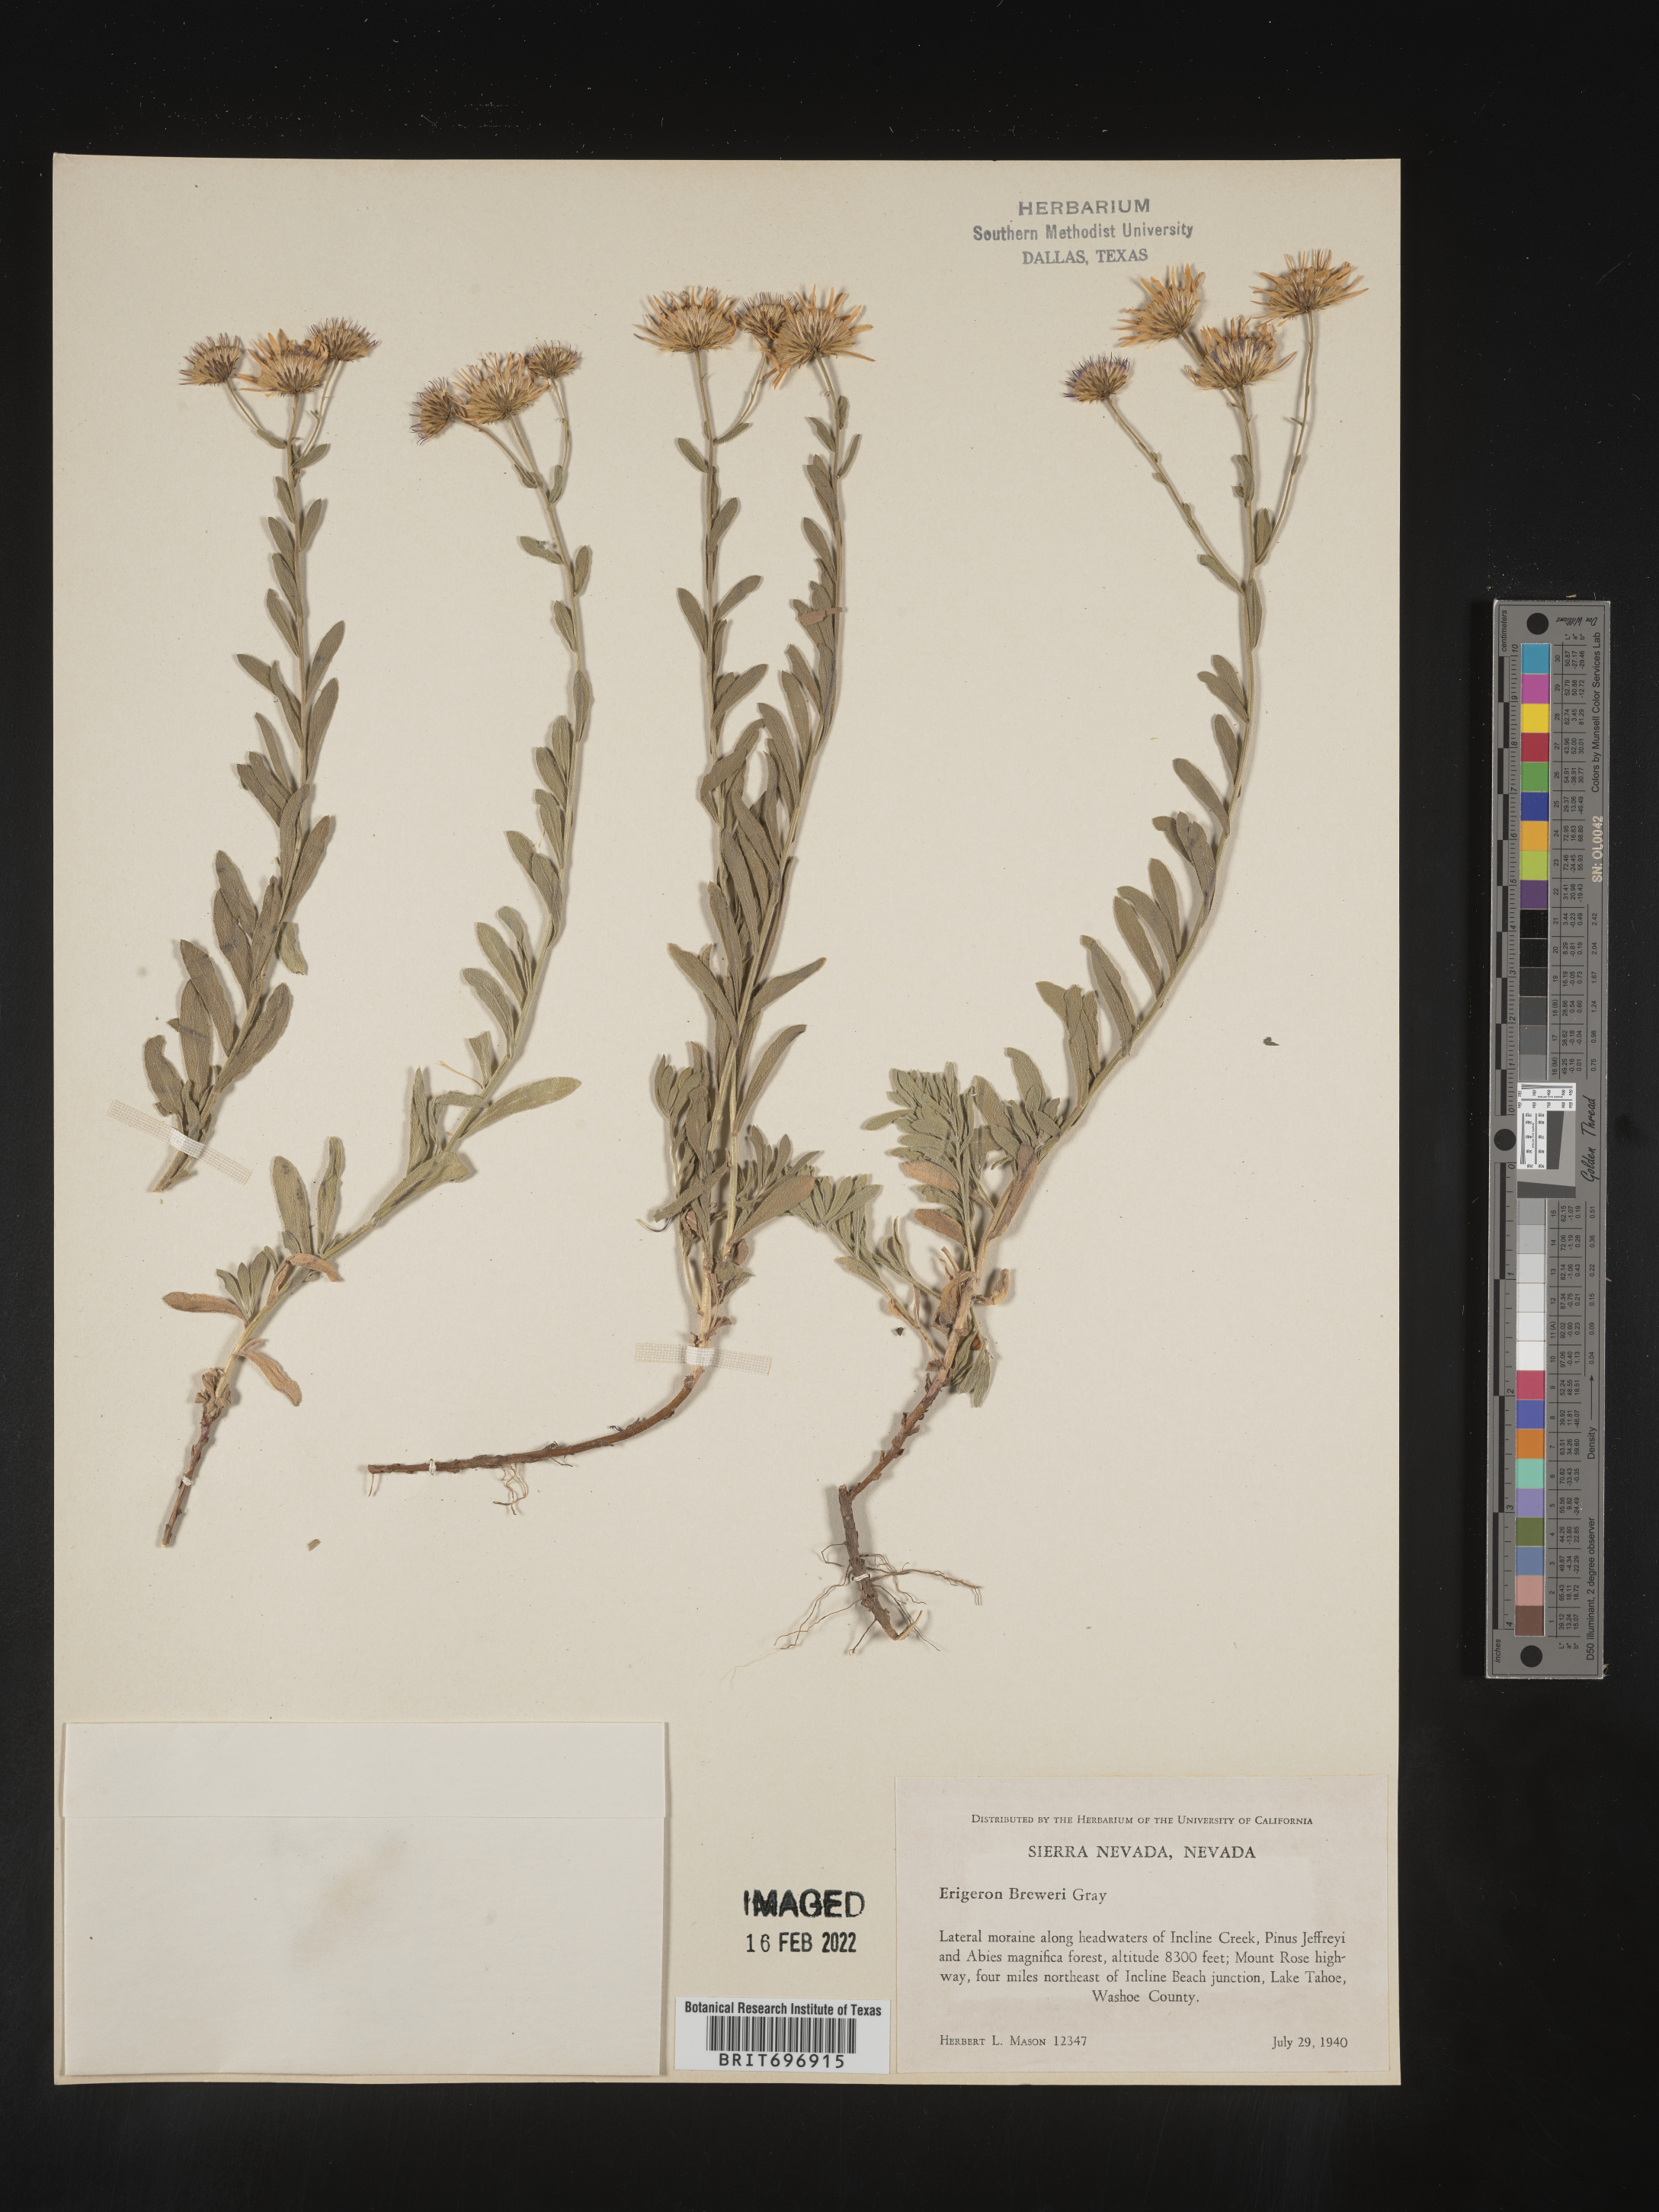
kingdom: Plantae
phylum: Tracheophyta
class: Magnoliopsida
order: Asterales
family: Asteraceae
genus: Erigeron
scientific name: Erigeron breweri
